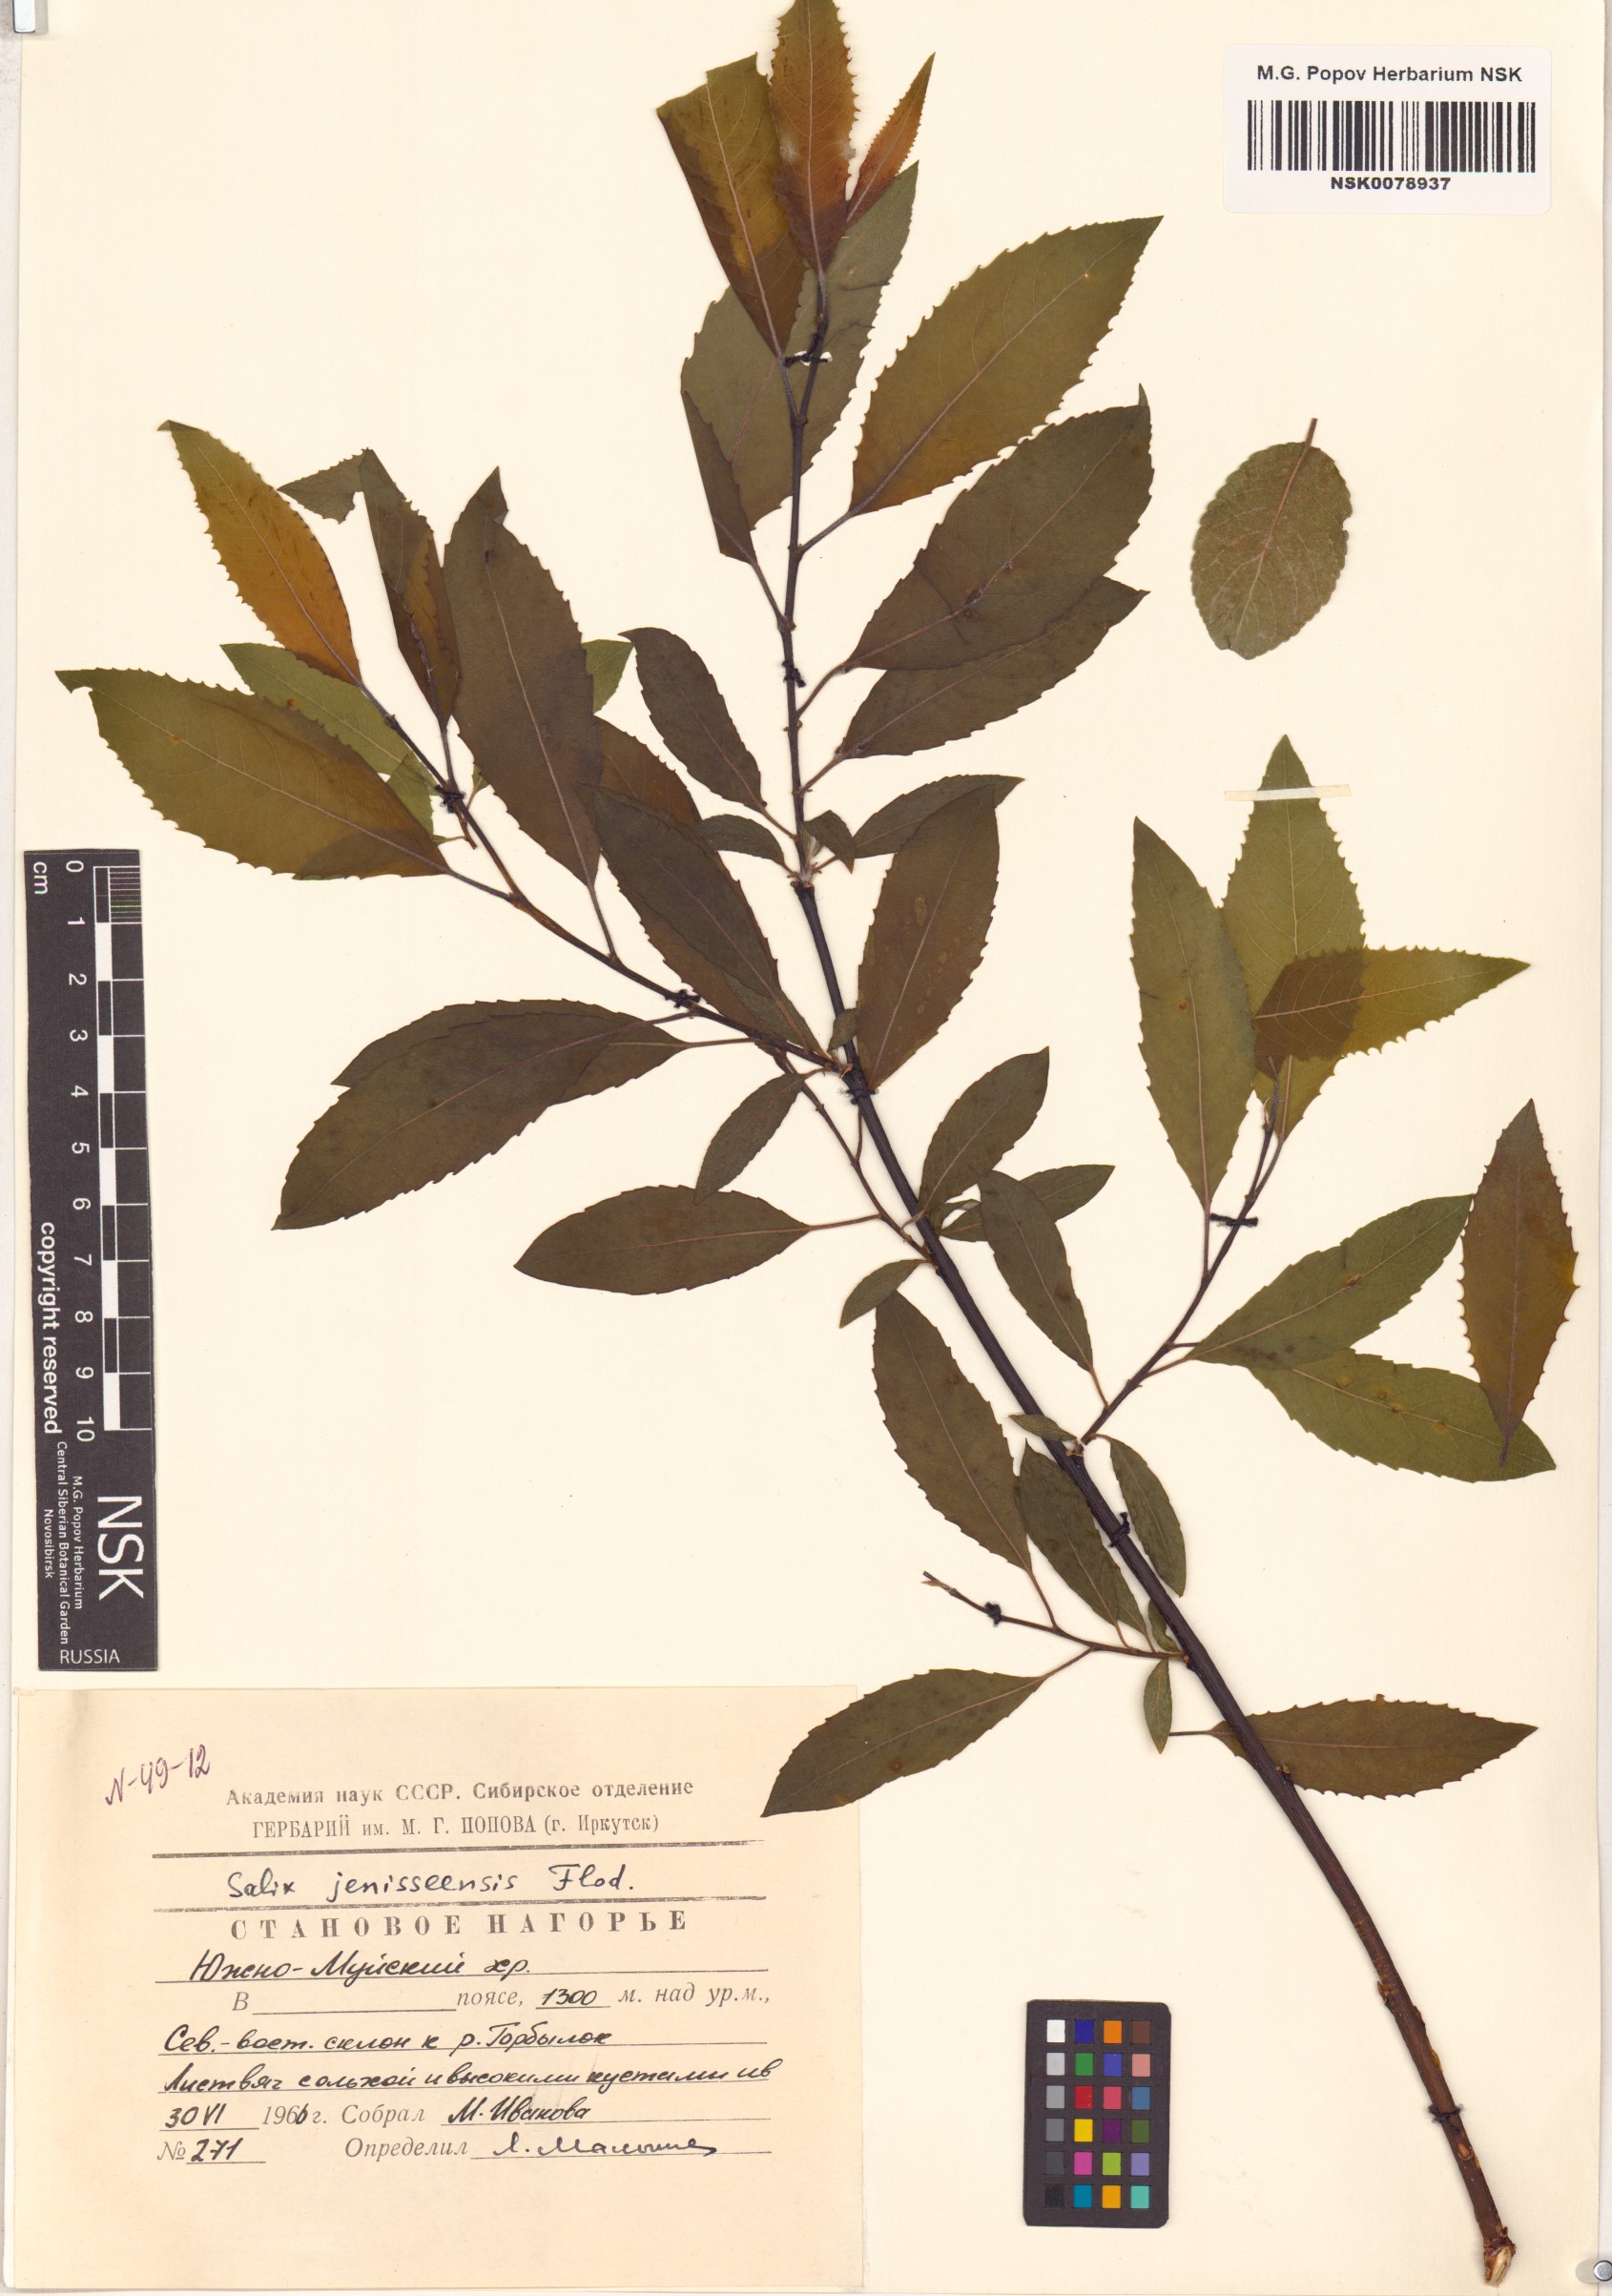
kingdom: Plantae
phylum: Tracheophyta
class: Magnoliopsida
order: Malpighiales
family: Salicaceae
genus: Salix
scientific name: Salix jenisseensis
